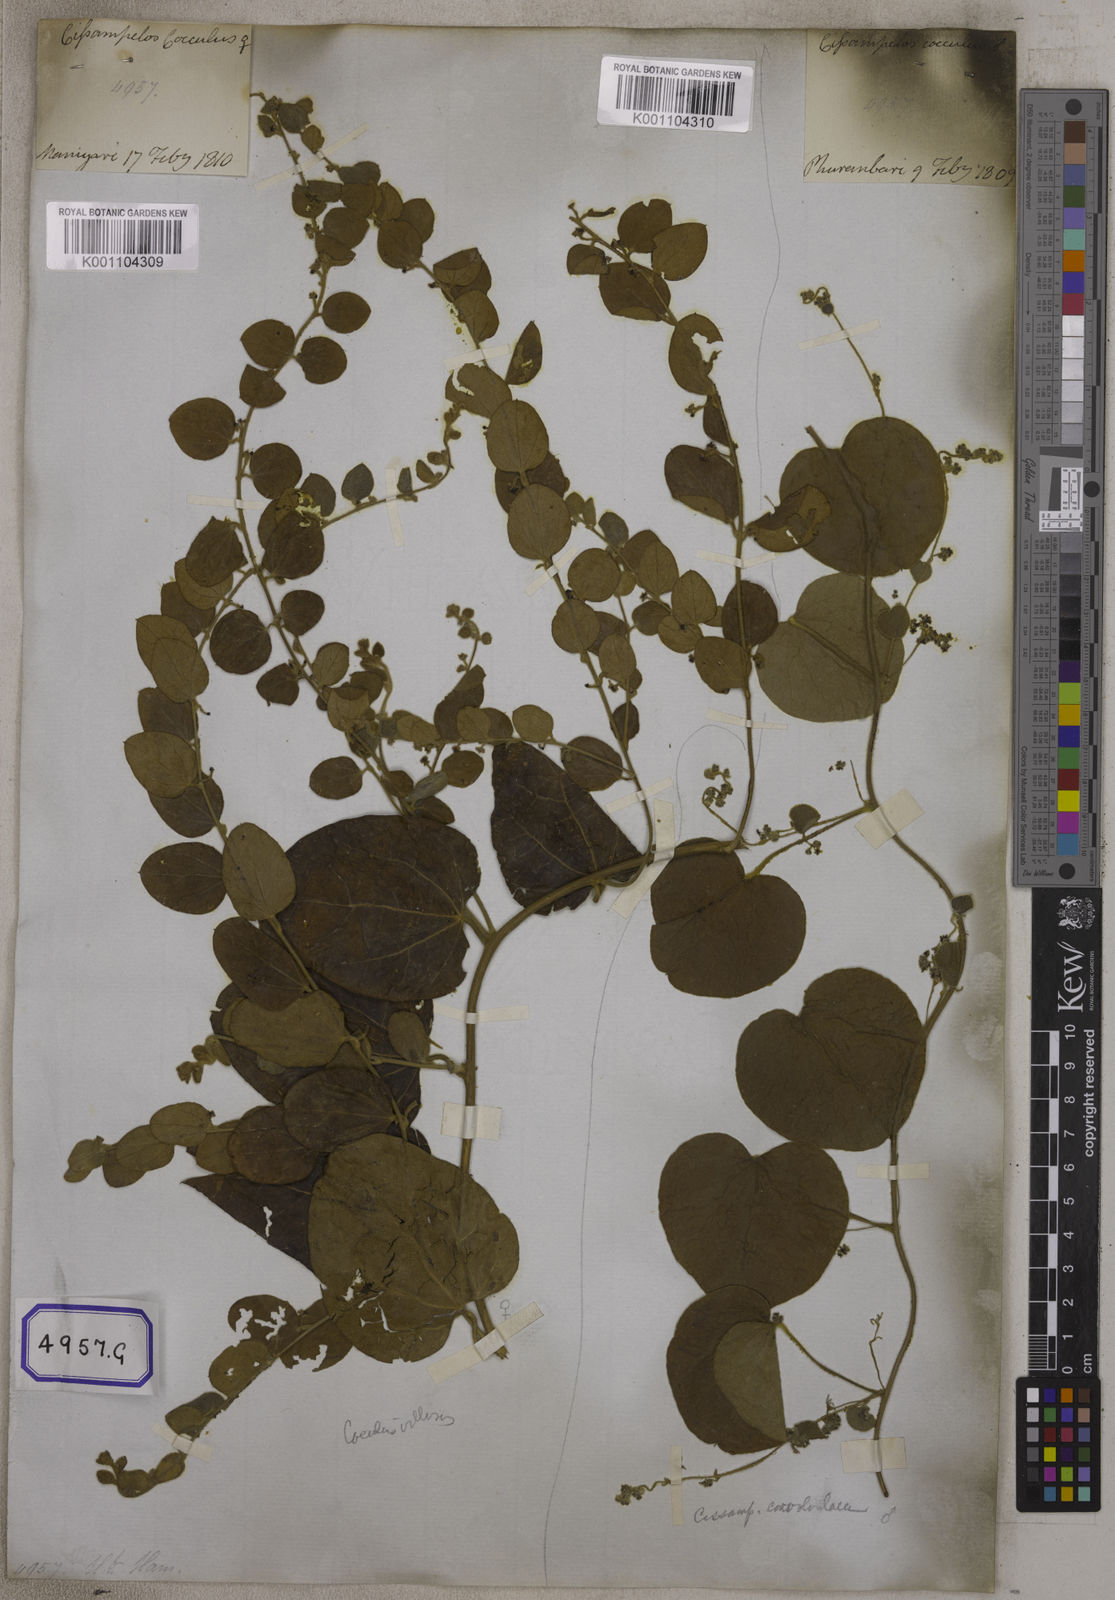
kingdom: Plantae
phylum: Tracheophyta
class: Magnoliopsida
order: Ranunculales
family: Menispermaceae
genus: Cocculus
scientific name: Cocculus hirsutus
